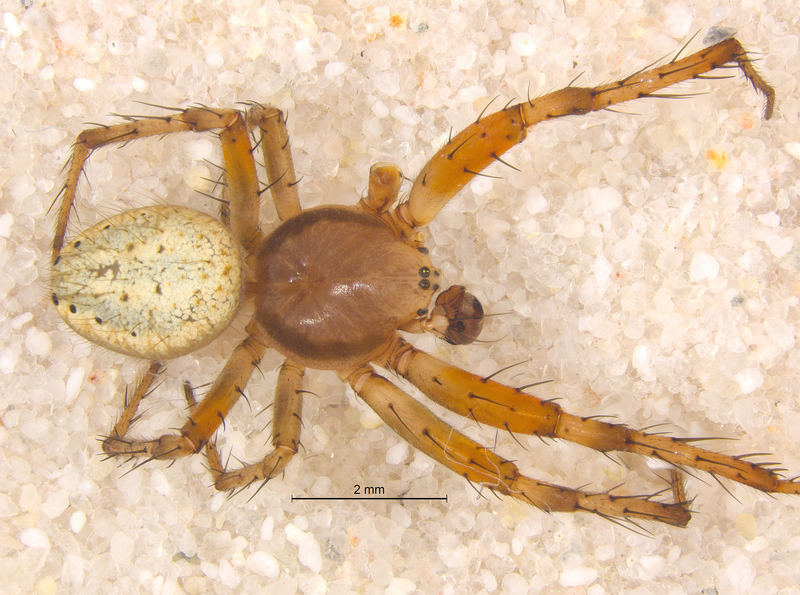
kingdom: Animalia
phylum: Arthropoda
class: Arachnida
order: Araneae
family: Araneidae
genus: Araniella
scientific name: Araniella cucurbitina
